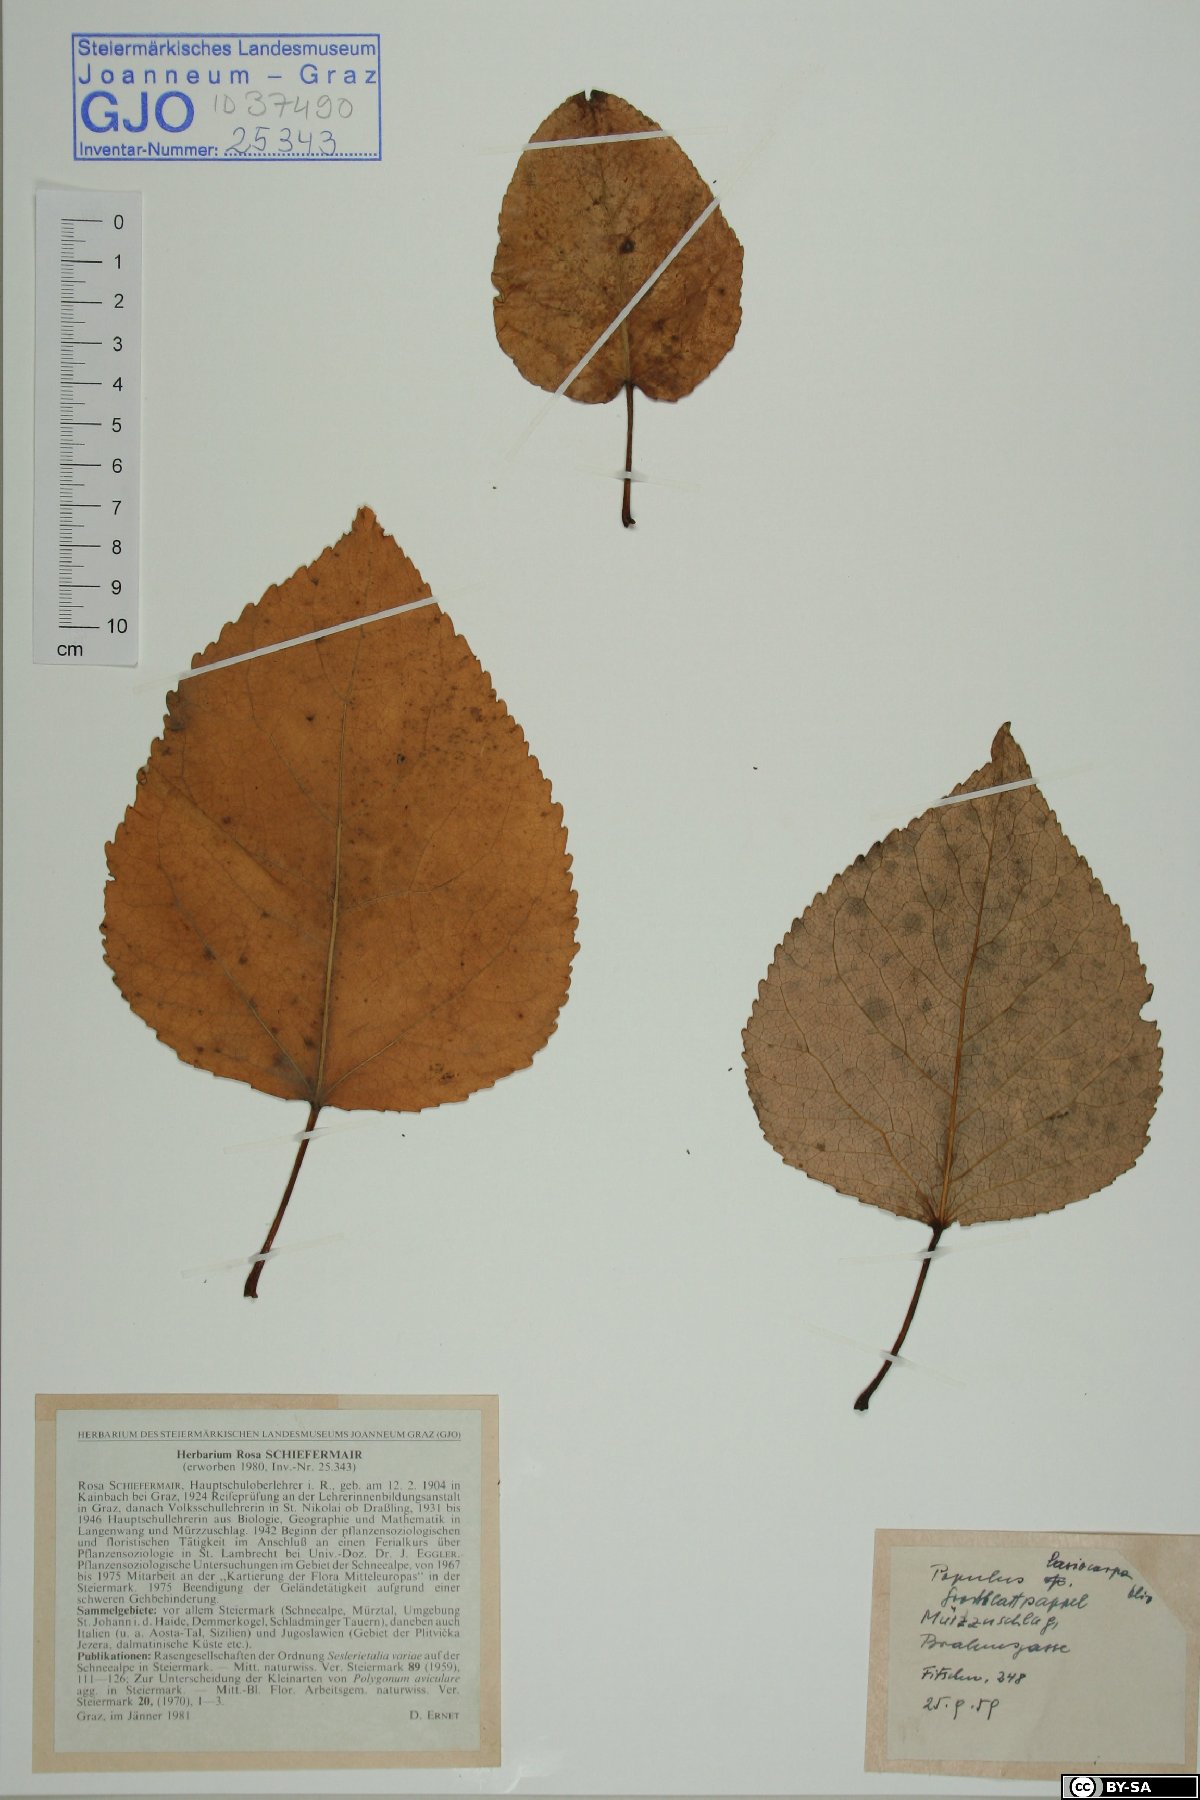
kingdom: Plantae
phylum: Tracheophyta
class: Magnoliopsida
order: Malpighiales
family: Salicaceae
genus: Populus
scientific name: Populus lasiocarpa
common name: Chinese necklace poplar
